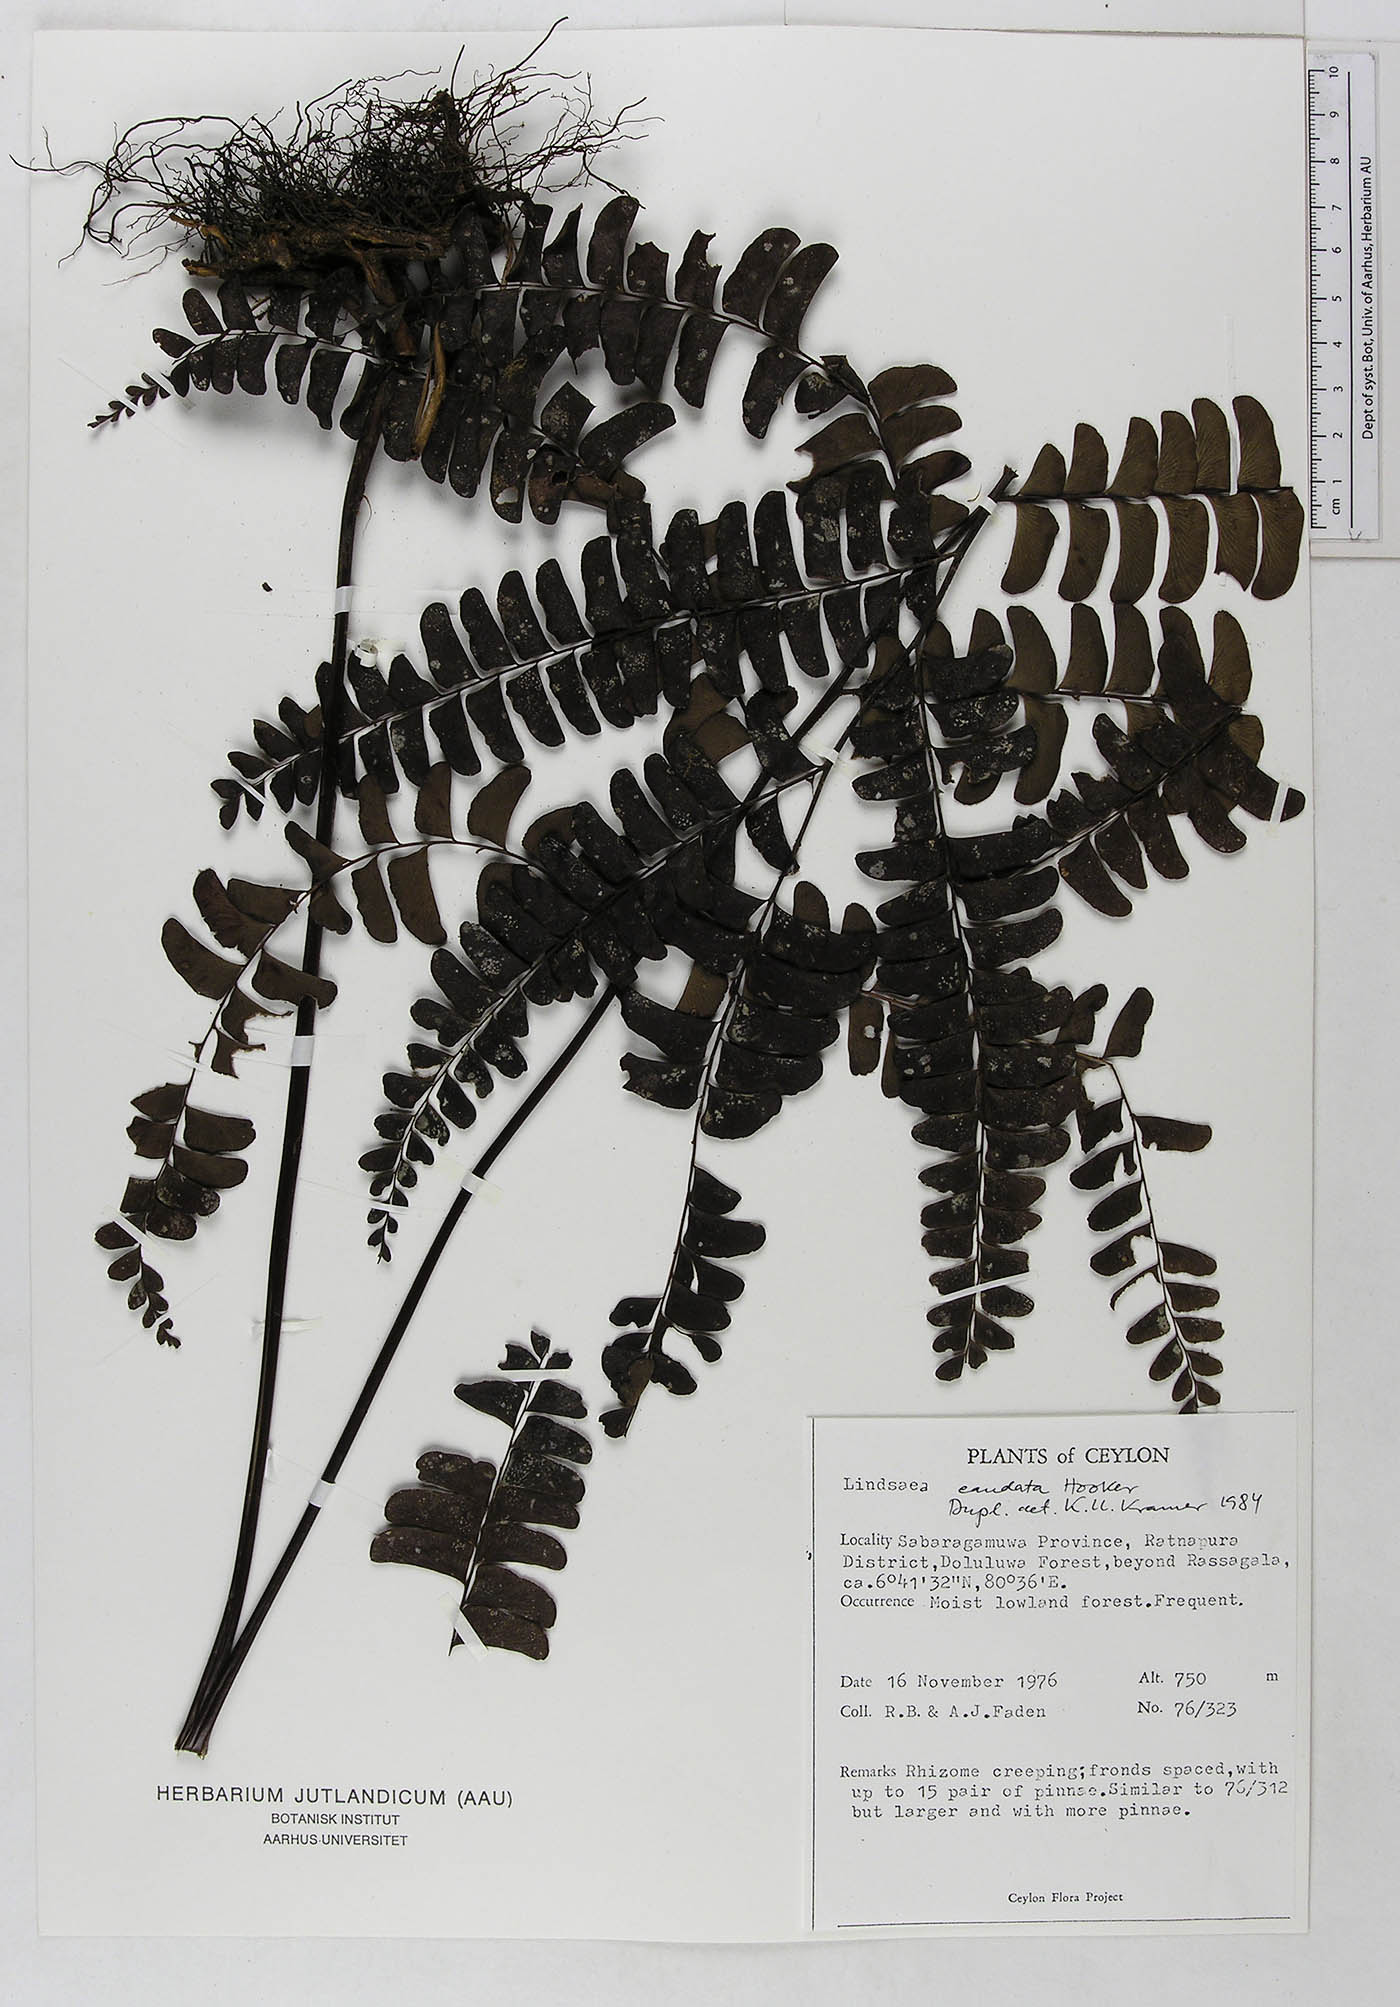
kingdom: Plantae
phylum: Tracheophyta
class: Polypodiopsida
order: Polypodiales
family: Dennstaedtiaceae
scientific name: Dennstaedtiaceae
